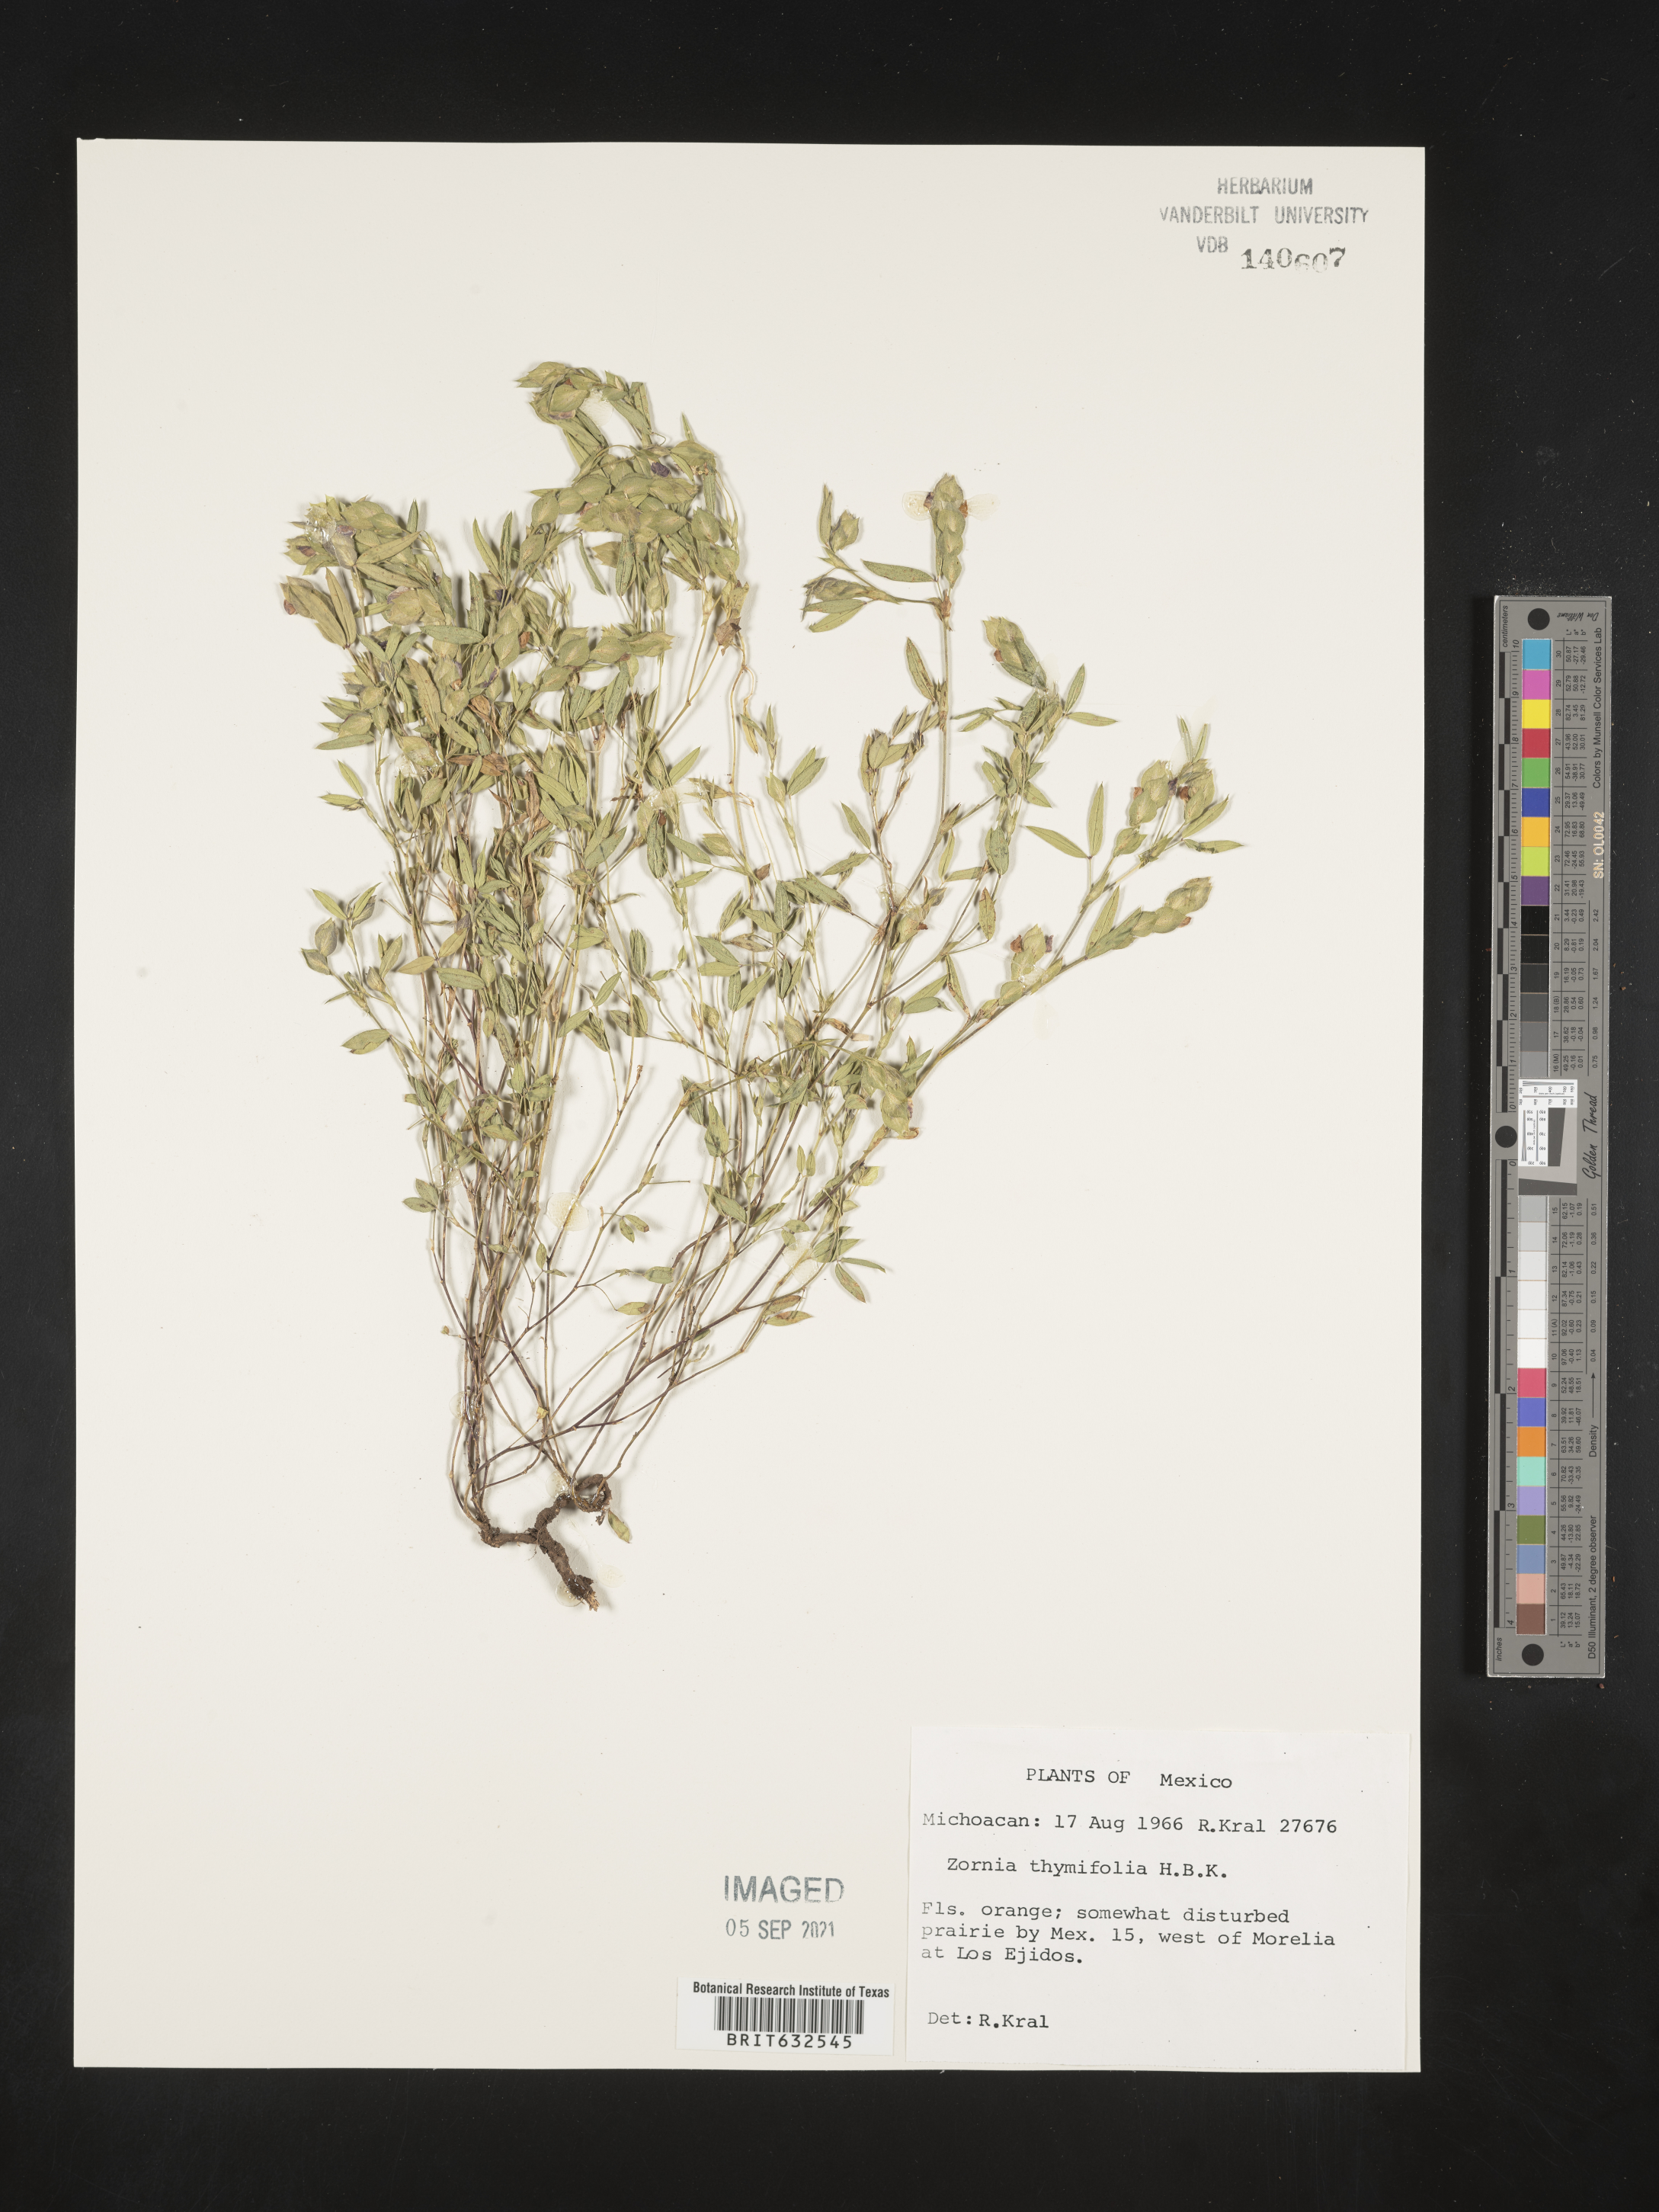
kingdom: Plantae
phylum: Tracheophyta
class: Magnoliopsida
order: Fabales
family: Fabaceae
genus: Zornia
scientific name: Zornia
